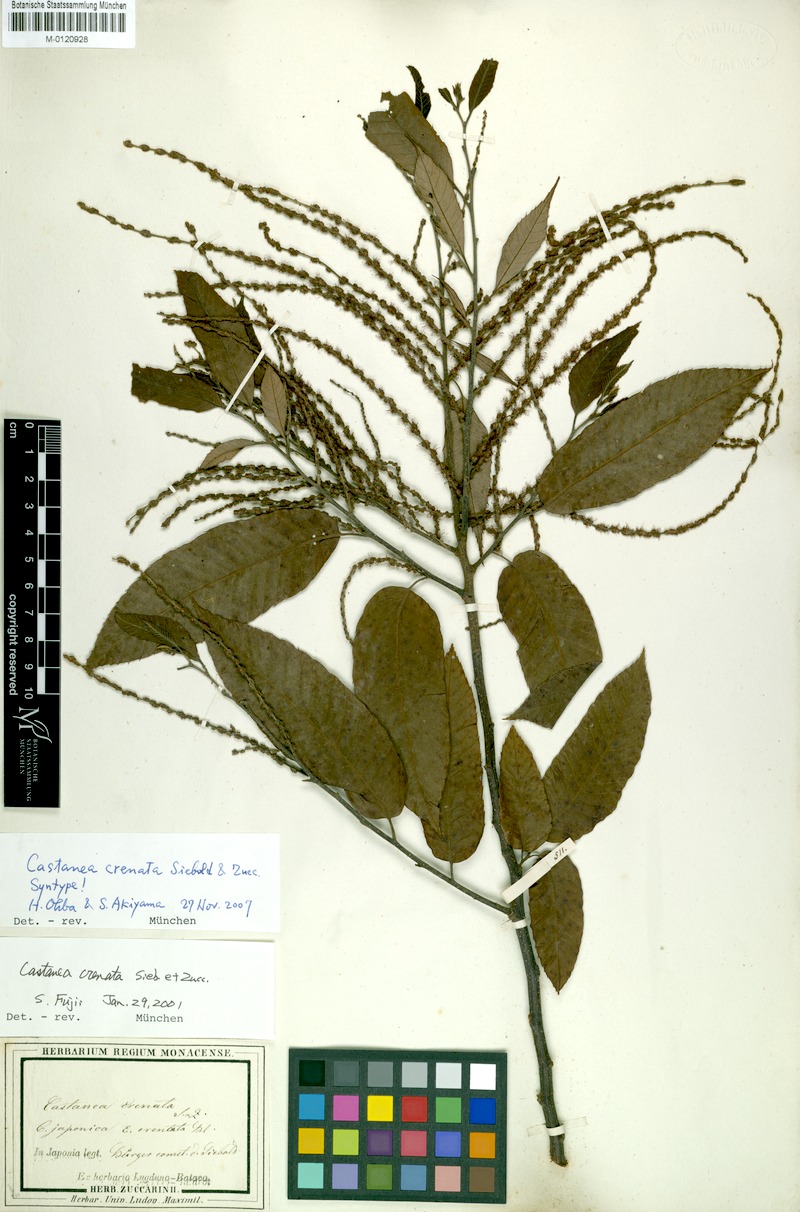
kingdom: Plantae
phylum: Tracheophyta
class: Magnoliopsida
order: Fagales
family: Fagaceae
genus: Castanea
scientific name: Castanea crenata
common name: Japanese chestnut
